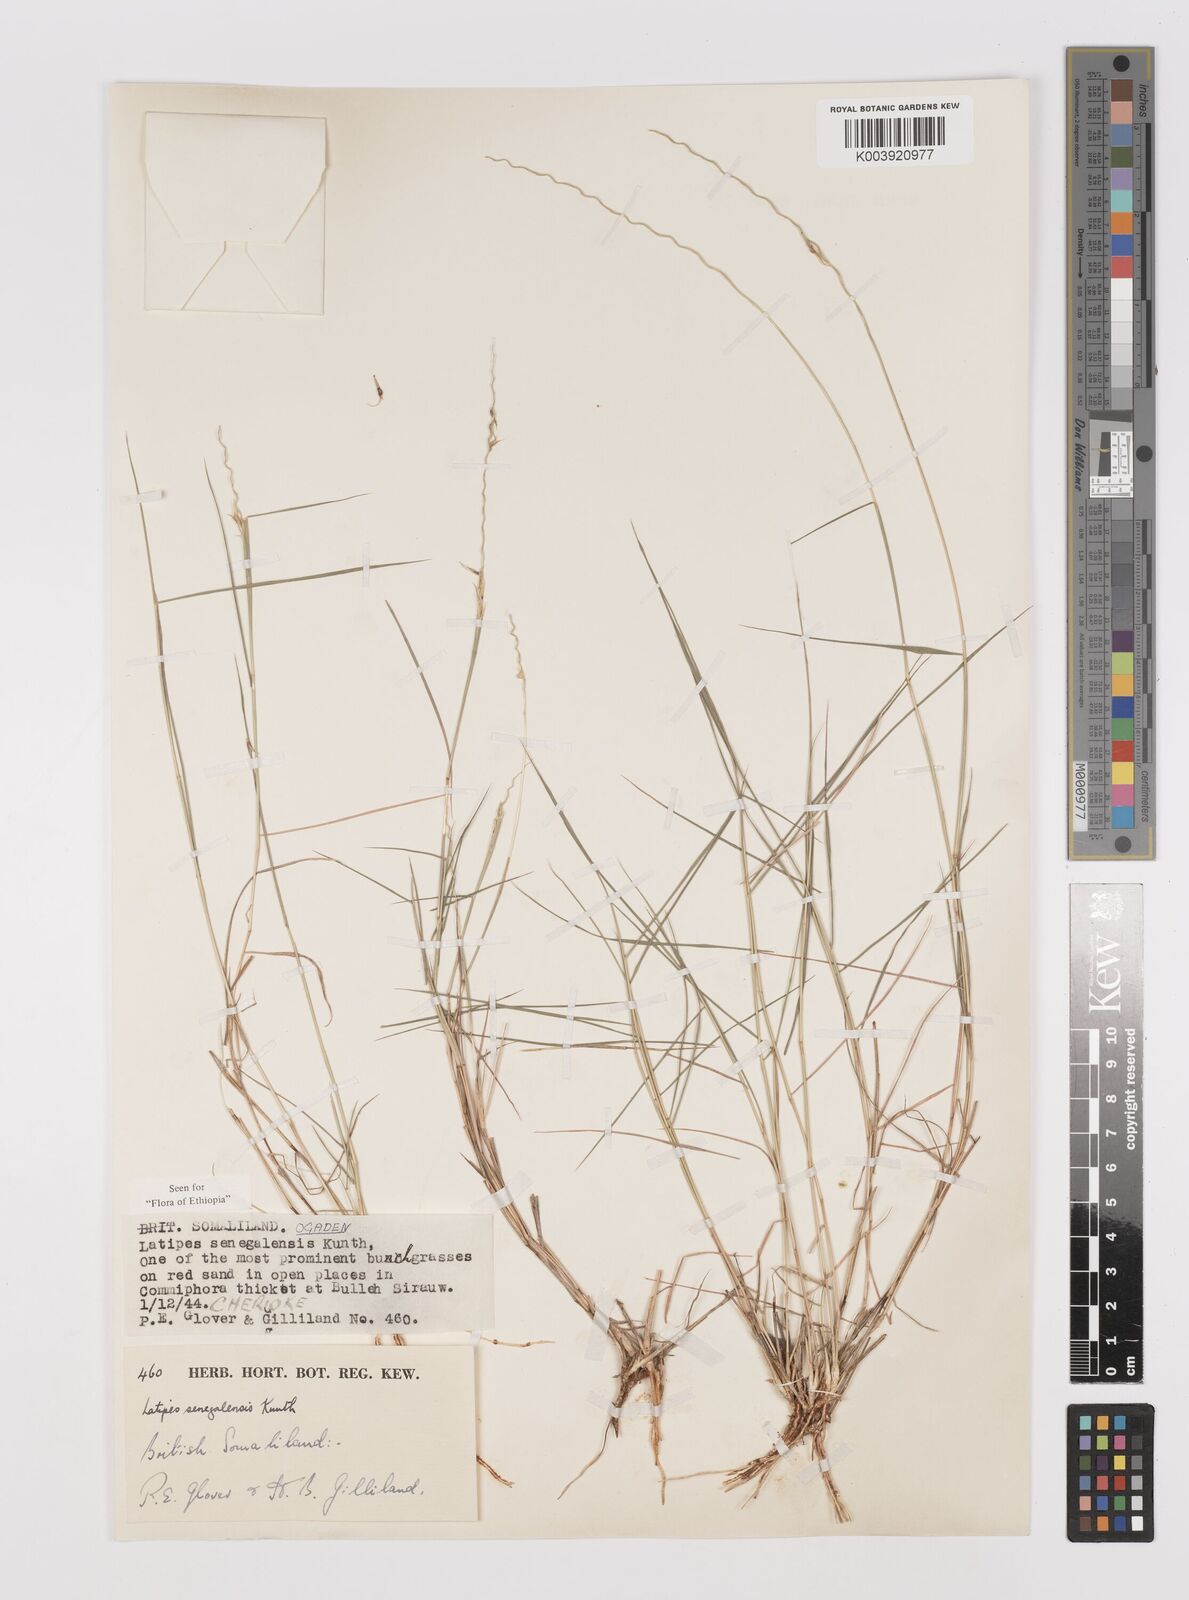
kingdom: Plantae
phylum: Tracheophyta
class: Liliopsida
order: Poales
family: Poaceae
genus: Leptothrium
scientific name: Leptothrium senegalense
